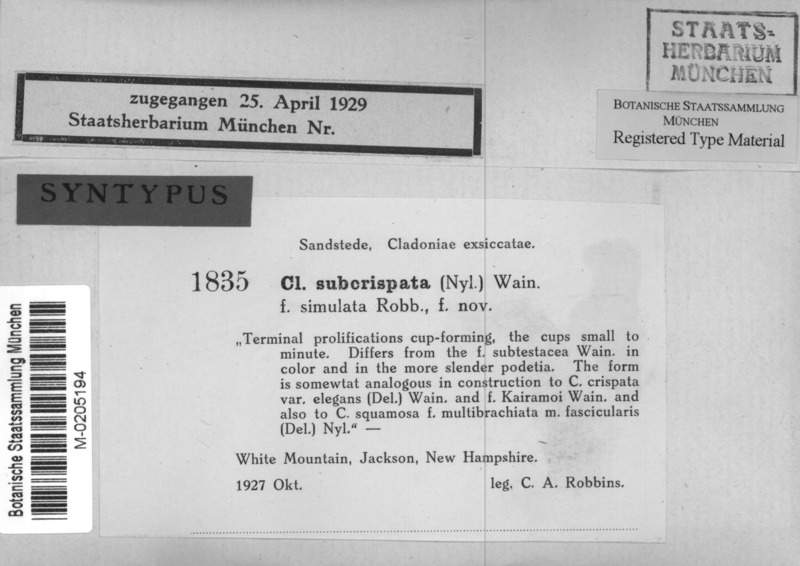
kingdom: Fungi
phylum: Ascomycota
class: Lecanoromycetes
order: Lecanorales
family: Cladoniaceae
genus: Cladonia
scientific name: Cladonia subcrispata
